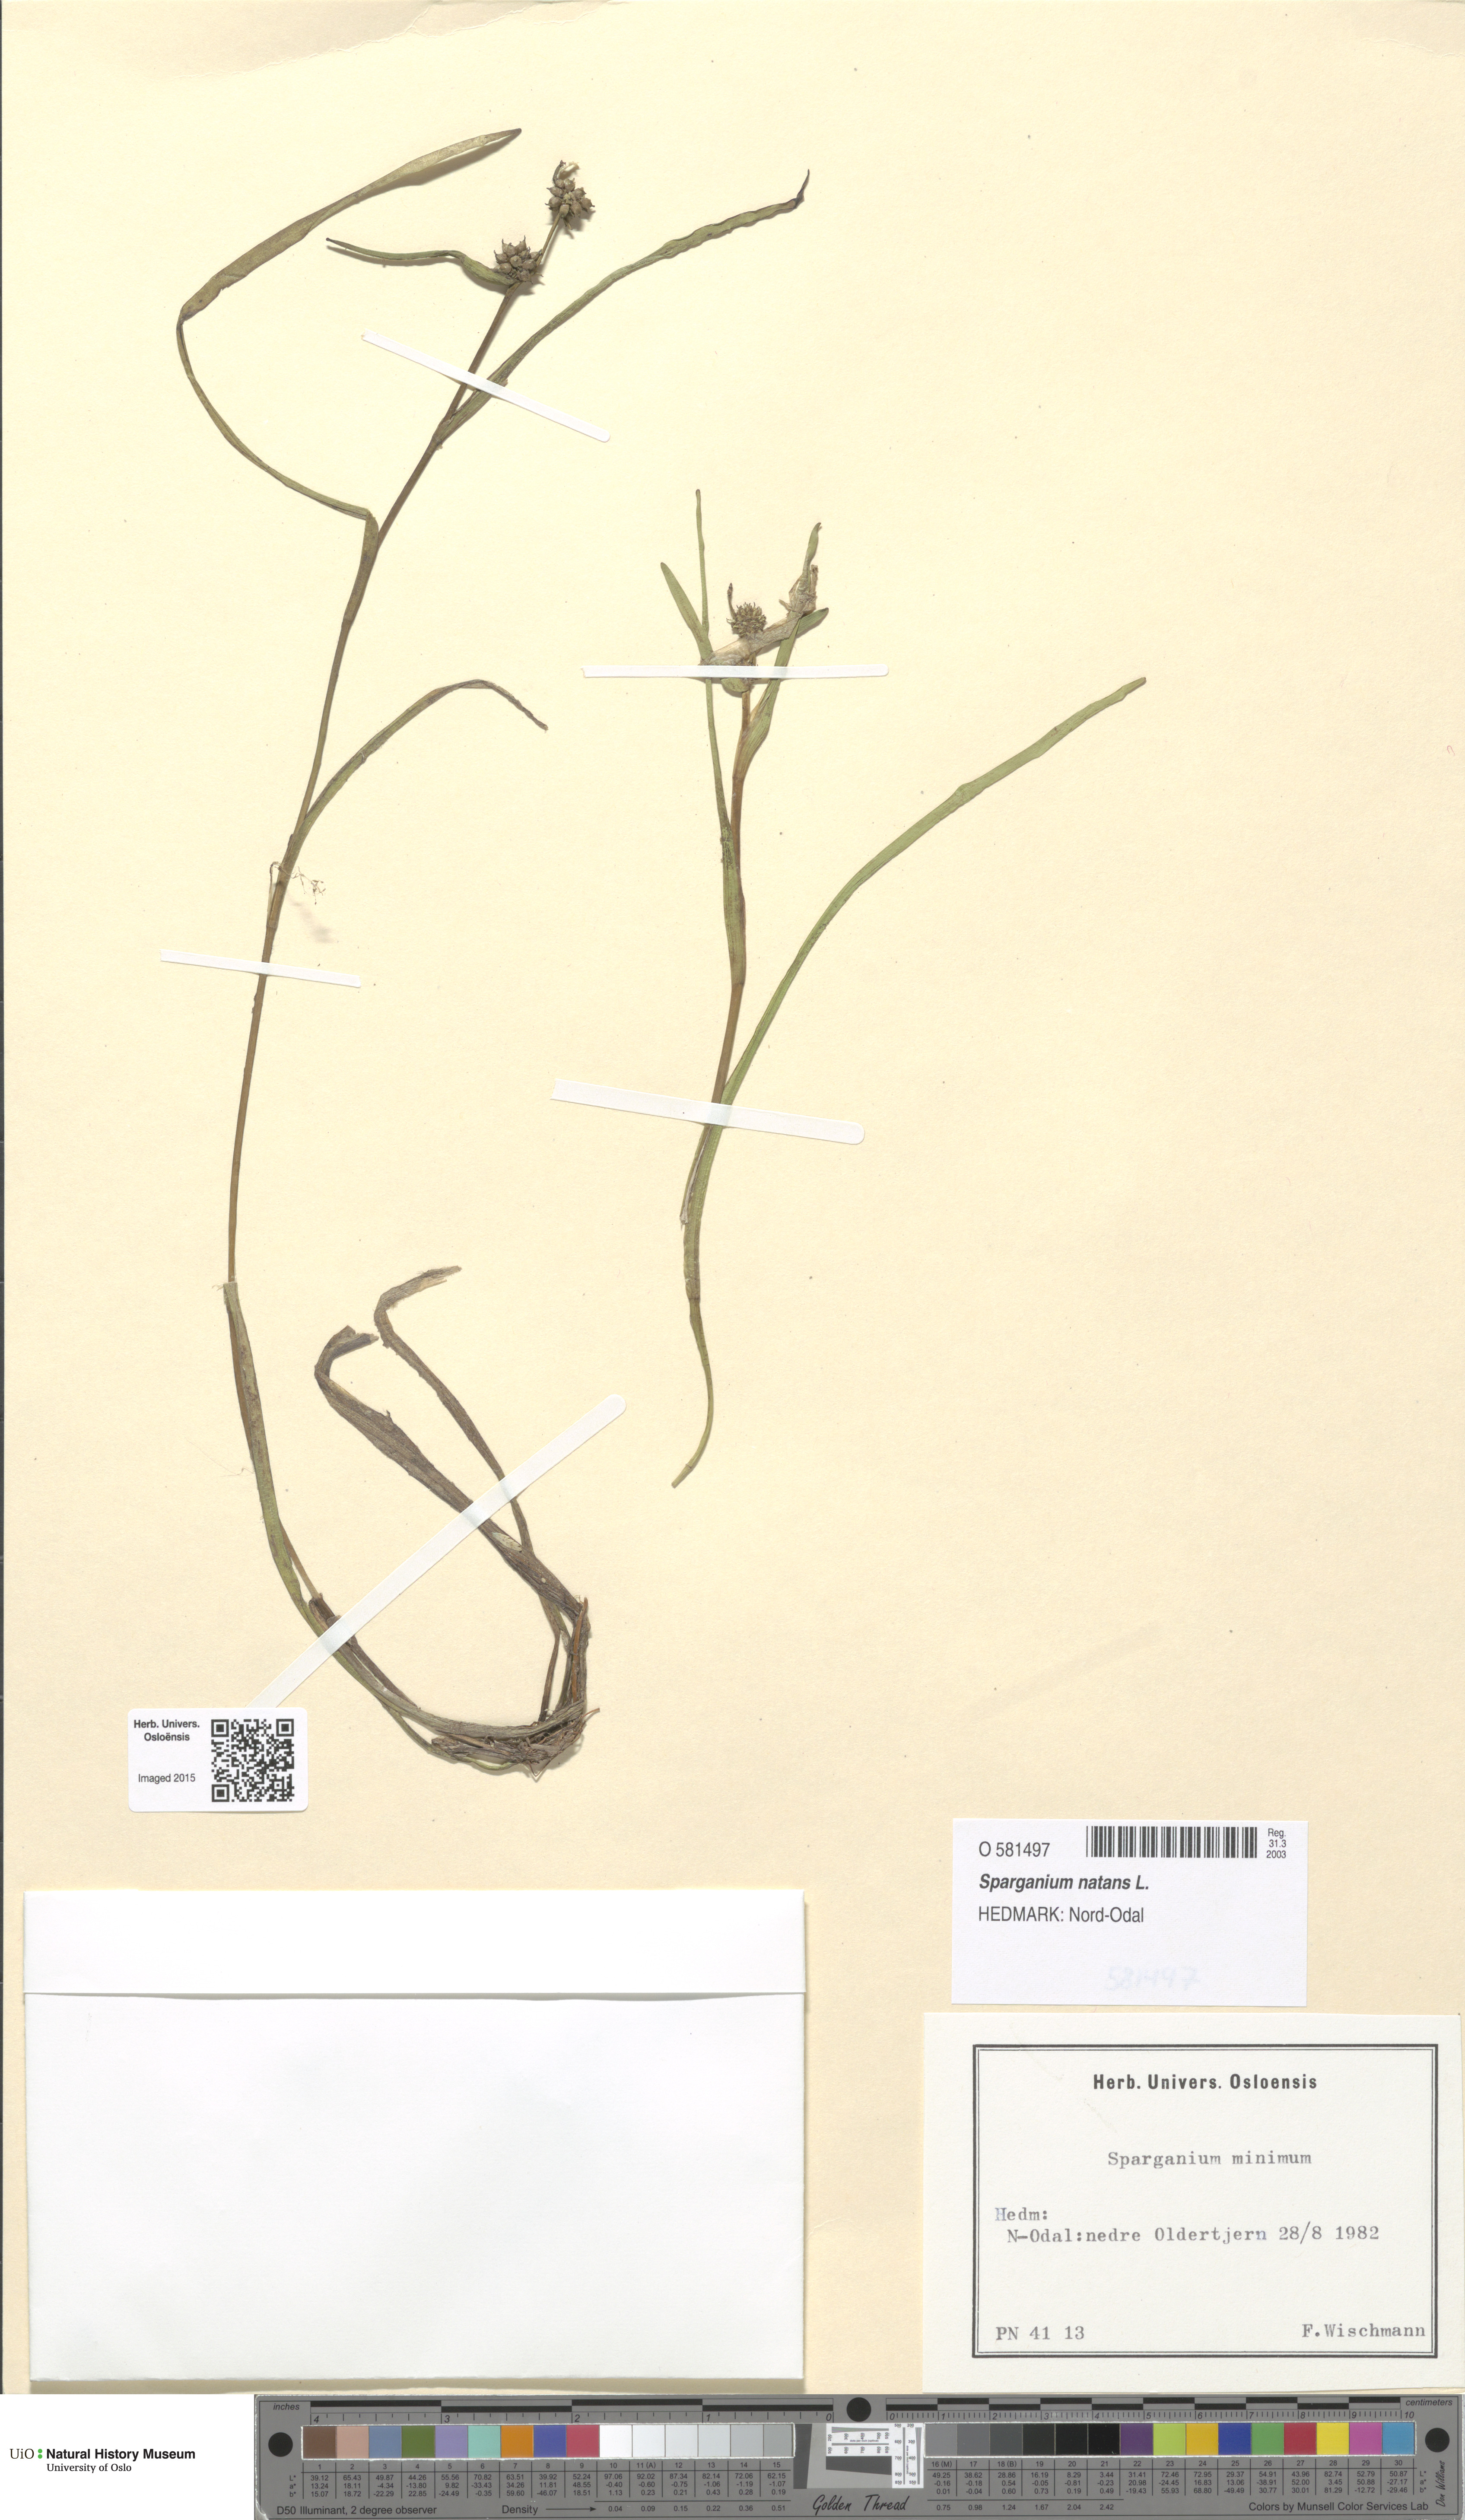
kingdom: Plantae
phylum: Tracheophyta
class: Liliopsida
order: Poales
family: Typhaceae
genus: Sparganium
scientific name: Sparganium natans
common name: Least bur-reed
